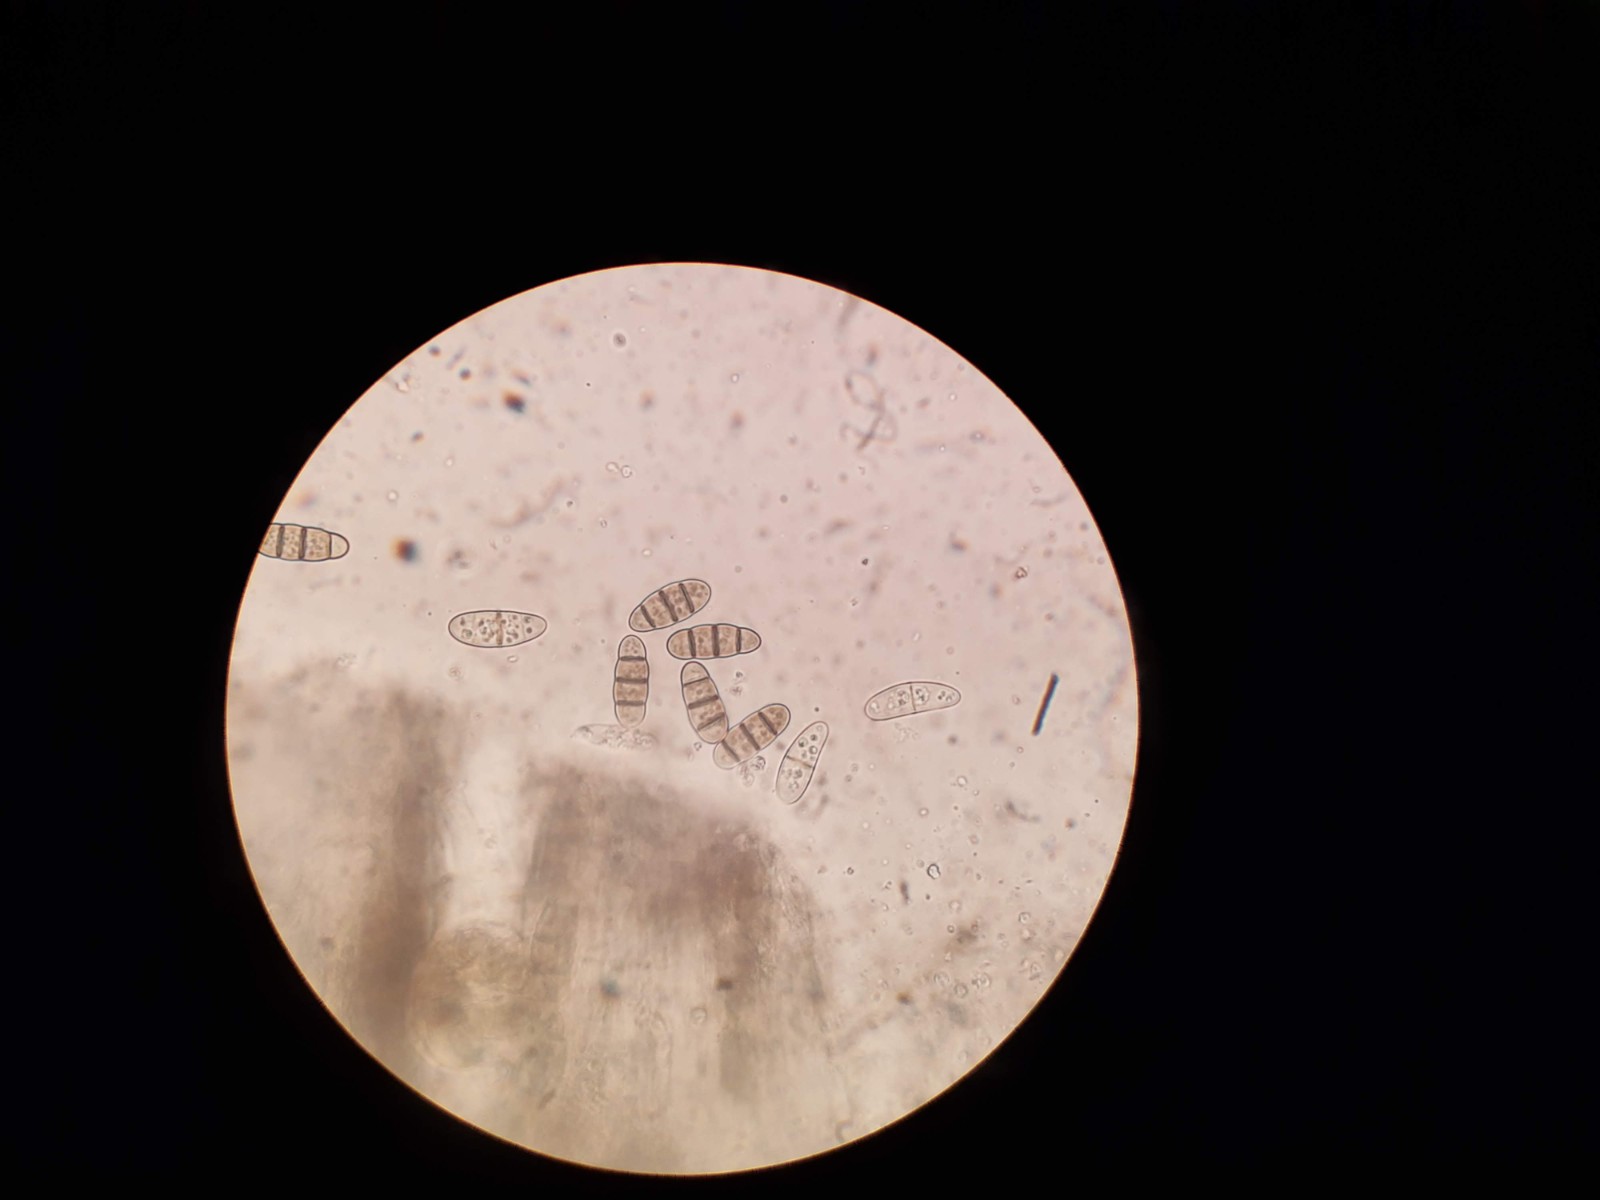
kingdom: Fungi
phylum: Ascomycota
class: Dothideomycetes
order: Hysteriales
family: Hysteriaceae
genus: Hysterium
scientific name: Hysterium acuminatum
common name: almindelig kulmund
